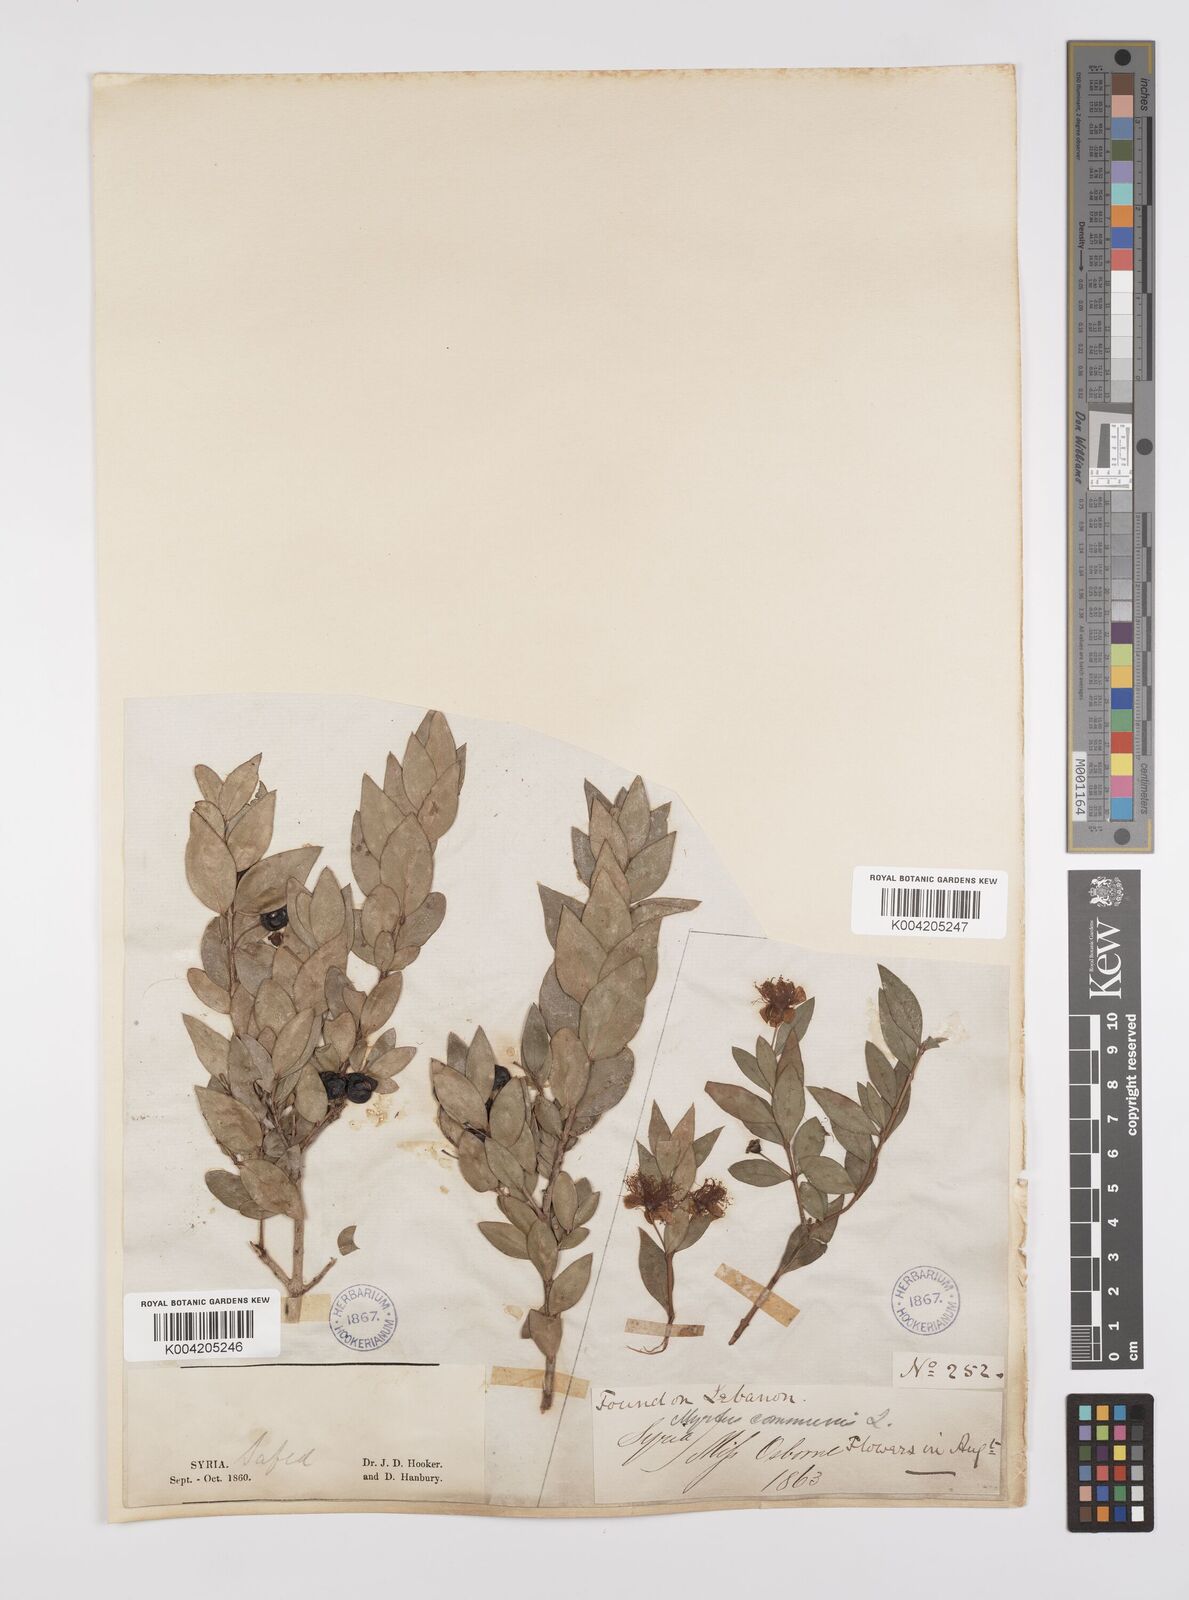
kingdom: Plantae
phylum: Tracheophyta
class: Magnoliopsida
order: Myrtales
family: Myrtaceae
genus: Myrtus
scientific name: Myrtus communis
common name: Myrtle
